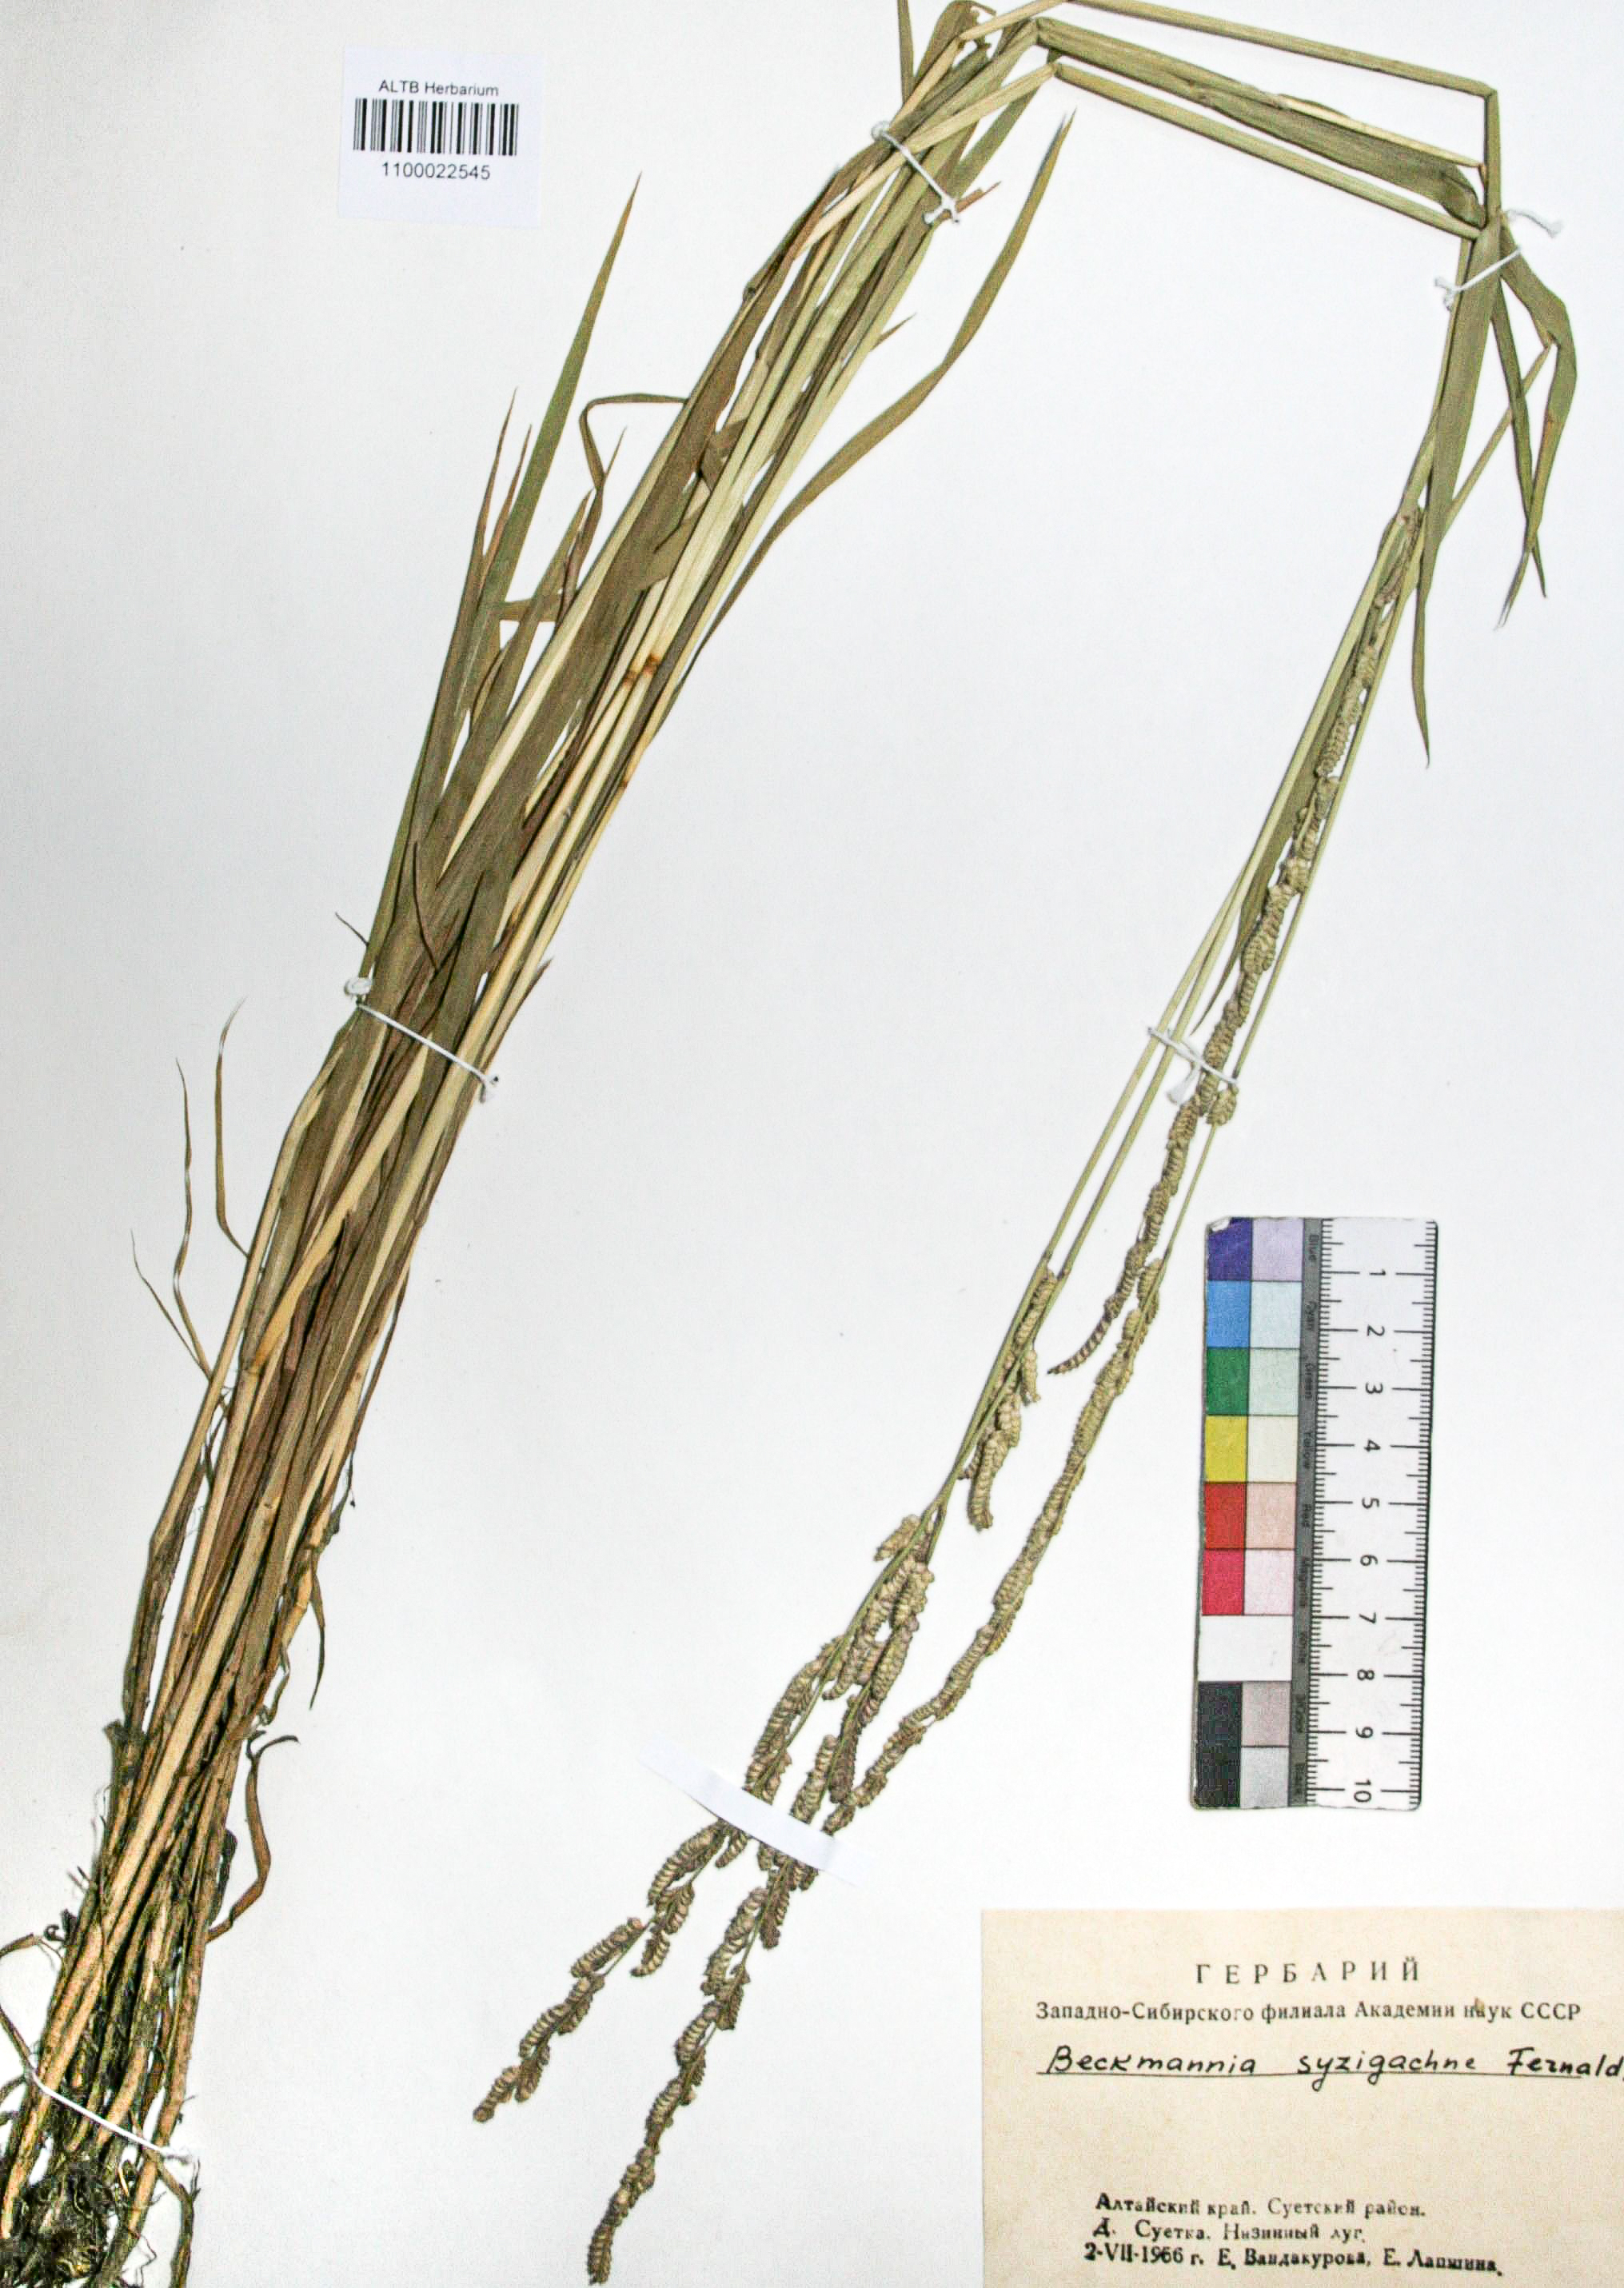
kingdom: Plantae
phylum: Tracheophyta
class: Liliopsida
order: Poales
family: Poaceae
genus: Beckmannia
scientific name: Beckmannia eruciformis
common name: European slough-grass
